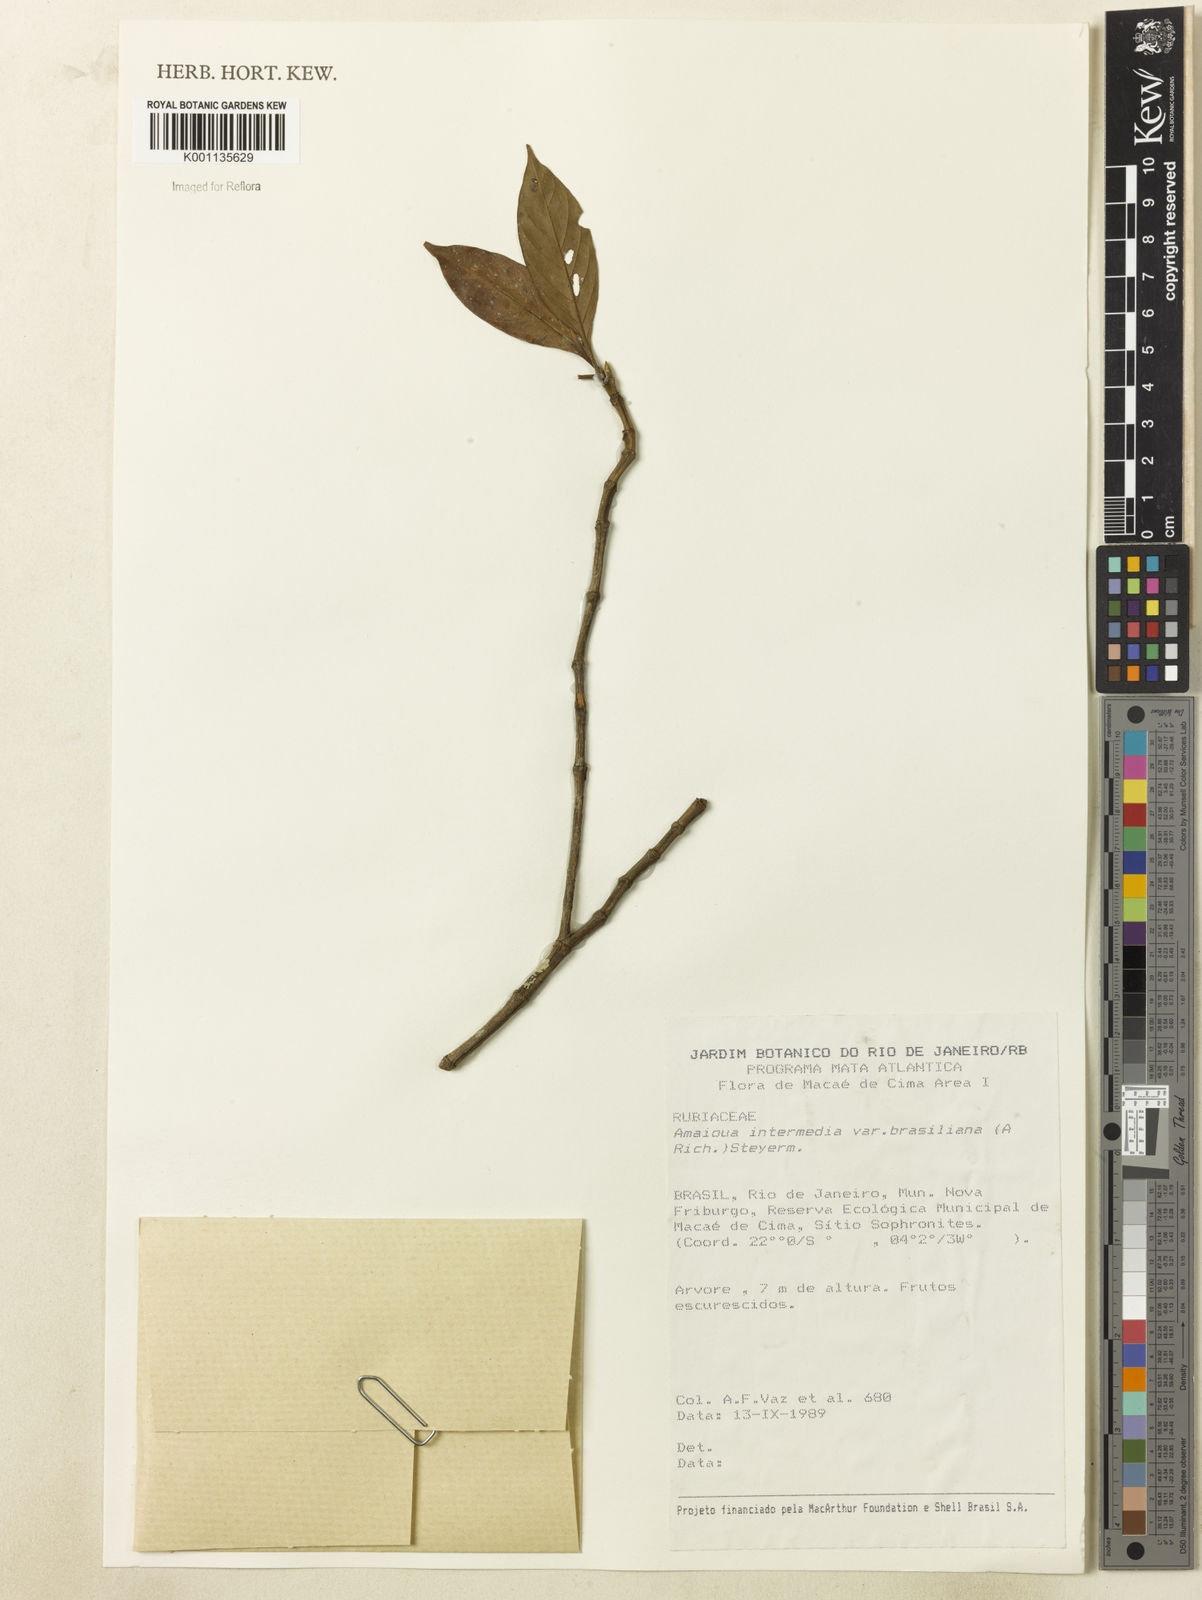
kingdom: Plantae
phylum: Tracheophyta
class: Magnoliopsida
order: Gentianales
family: Rubiaceae
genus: Amaioua
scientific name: Amaioua intermedia
